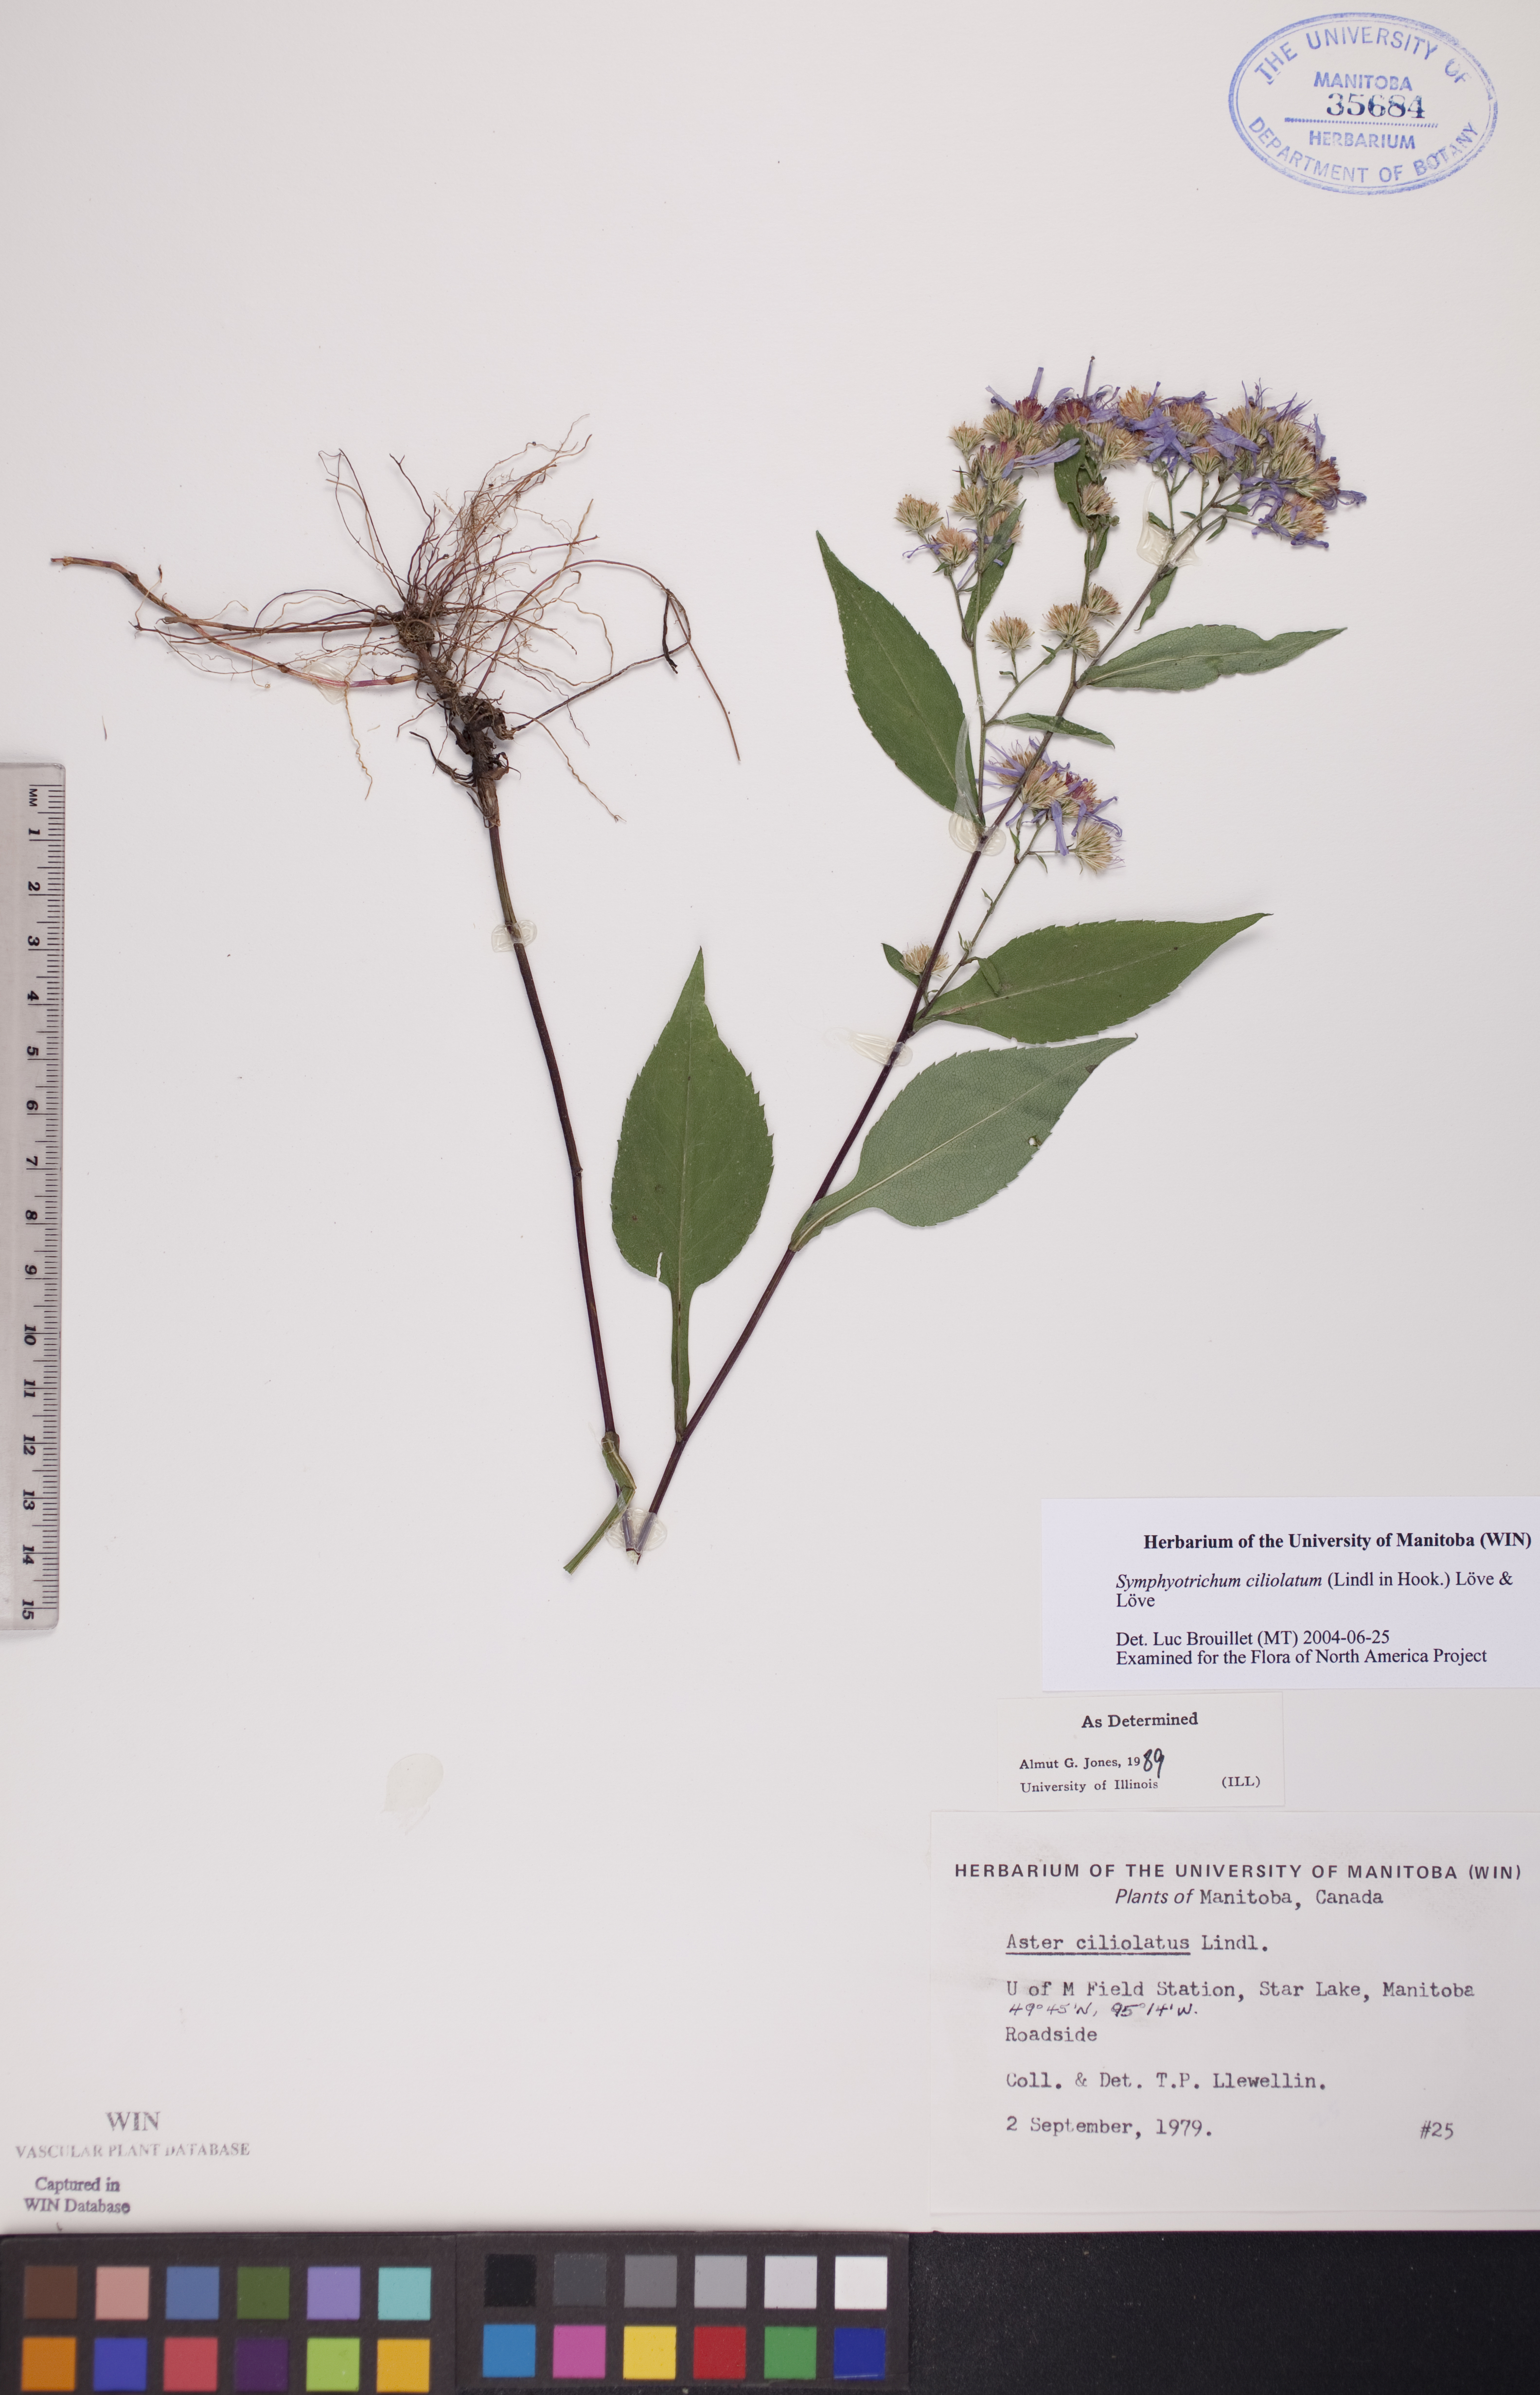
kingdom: Plantae
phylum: Tracheophyta
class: Magnoliopsida
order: Asterales
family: Asteraceae
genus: Symphyotrichum
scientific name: Symphyotrichum ciliolatum
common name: Fringed blue aster
